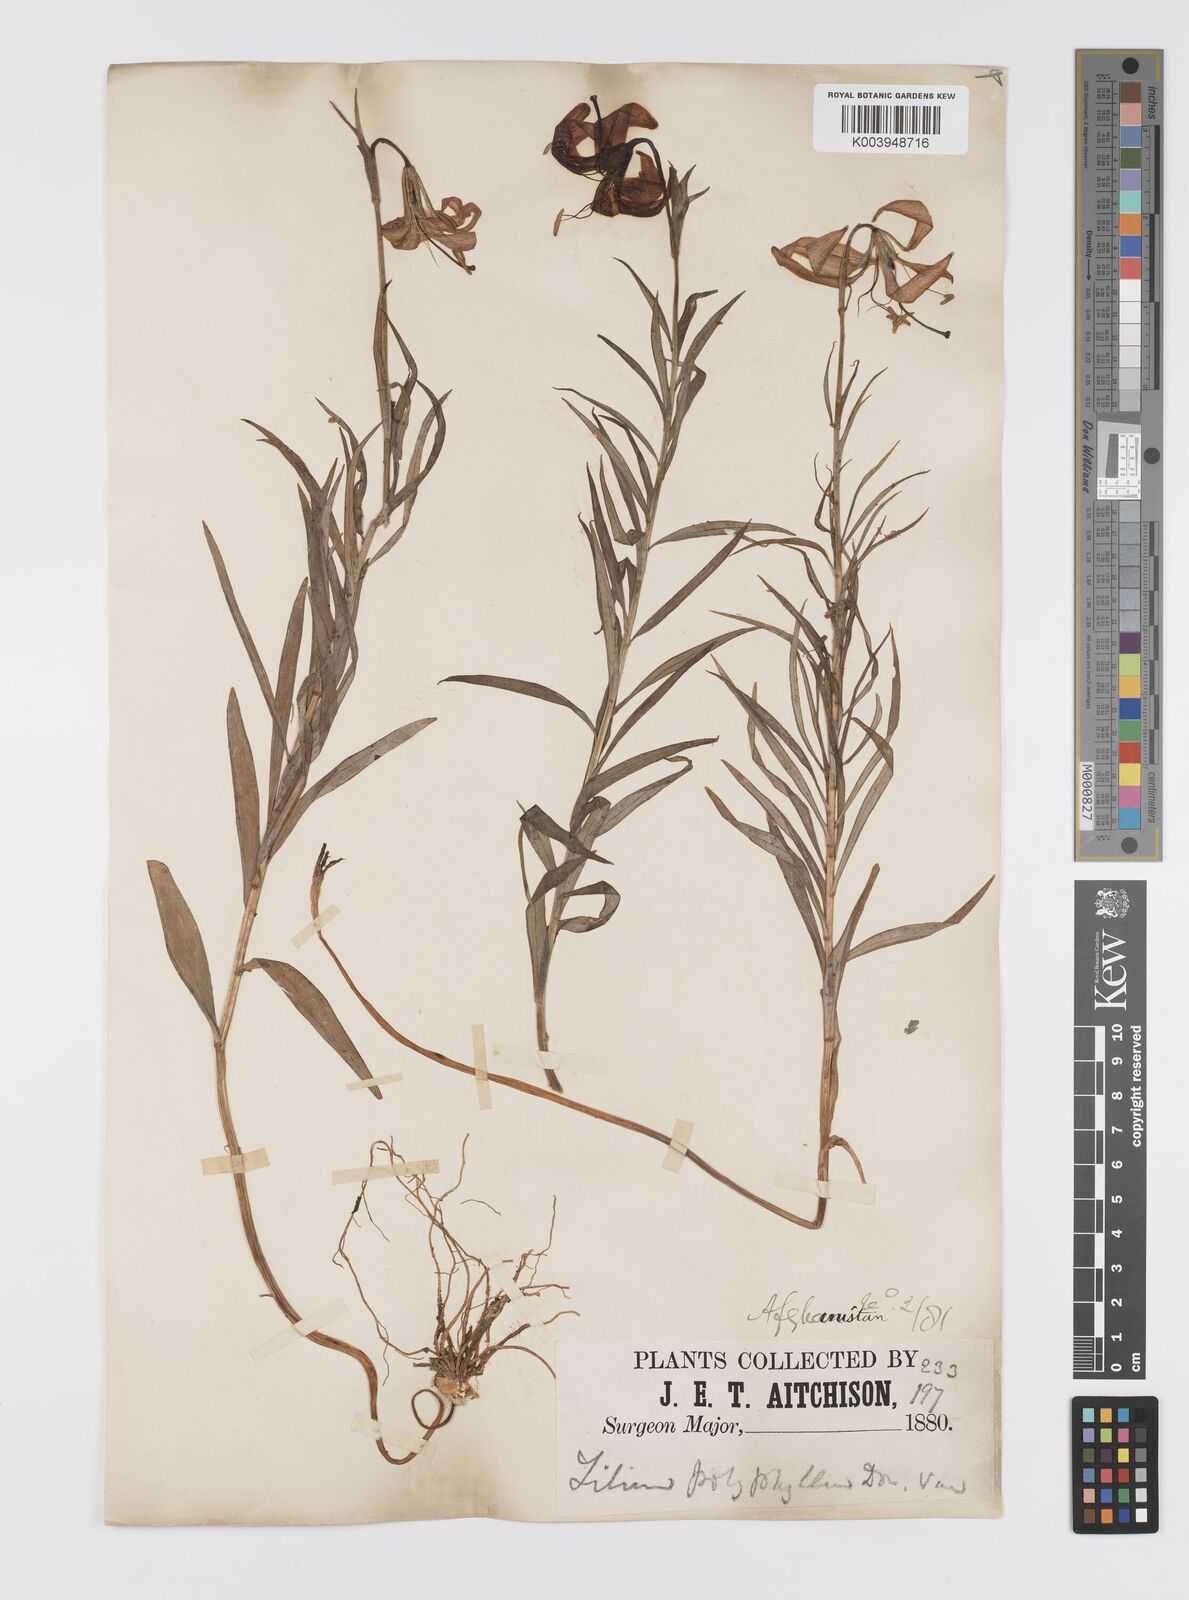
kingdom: Plantae
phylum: Tracheophyta
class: Liliopsida
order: Liliales
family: Liliaceae
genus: Lilium
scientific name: Lilium polyphyllum
